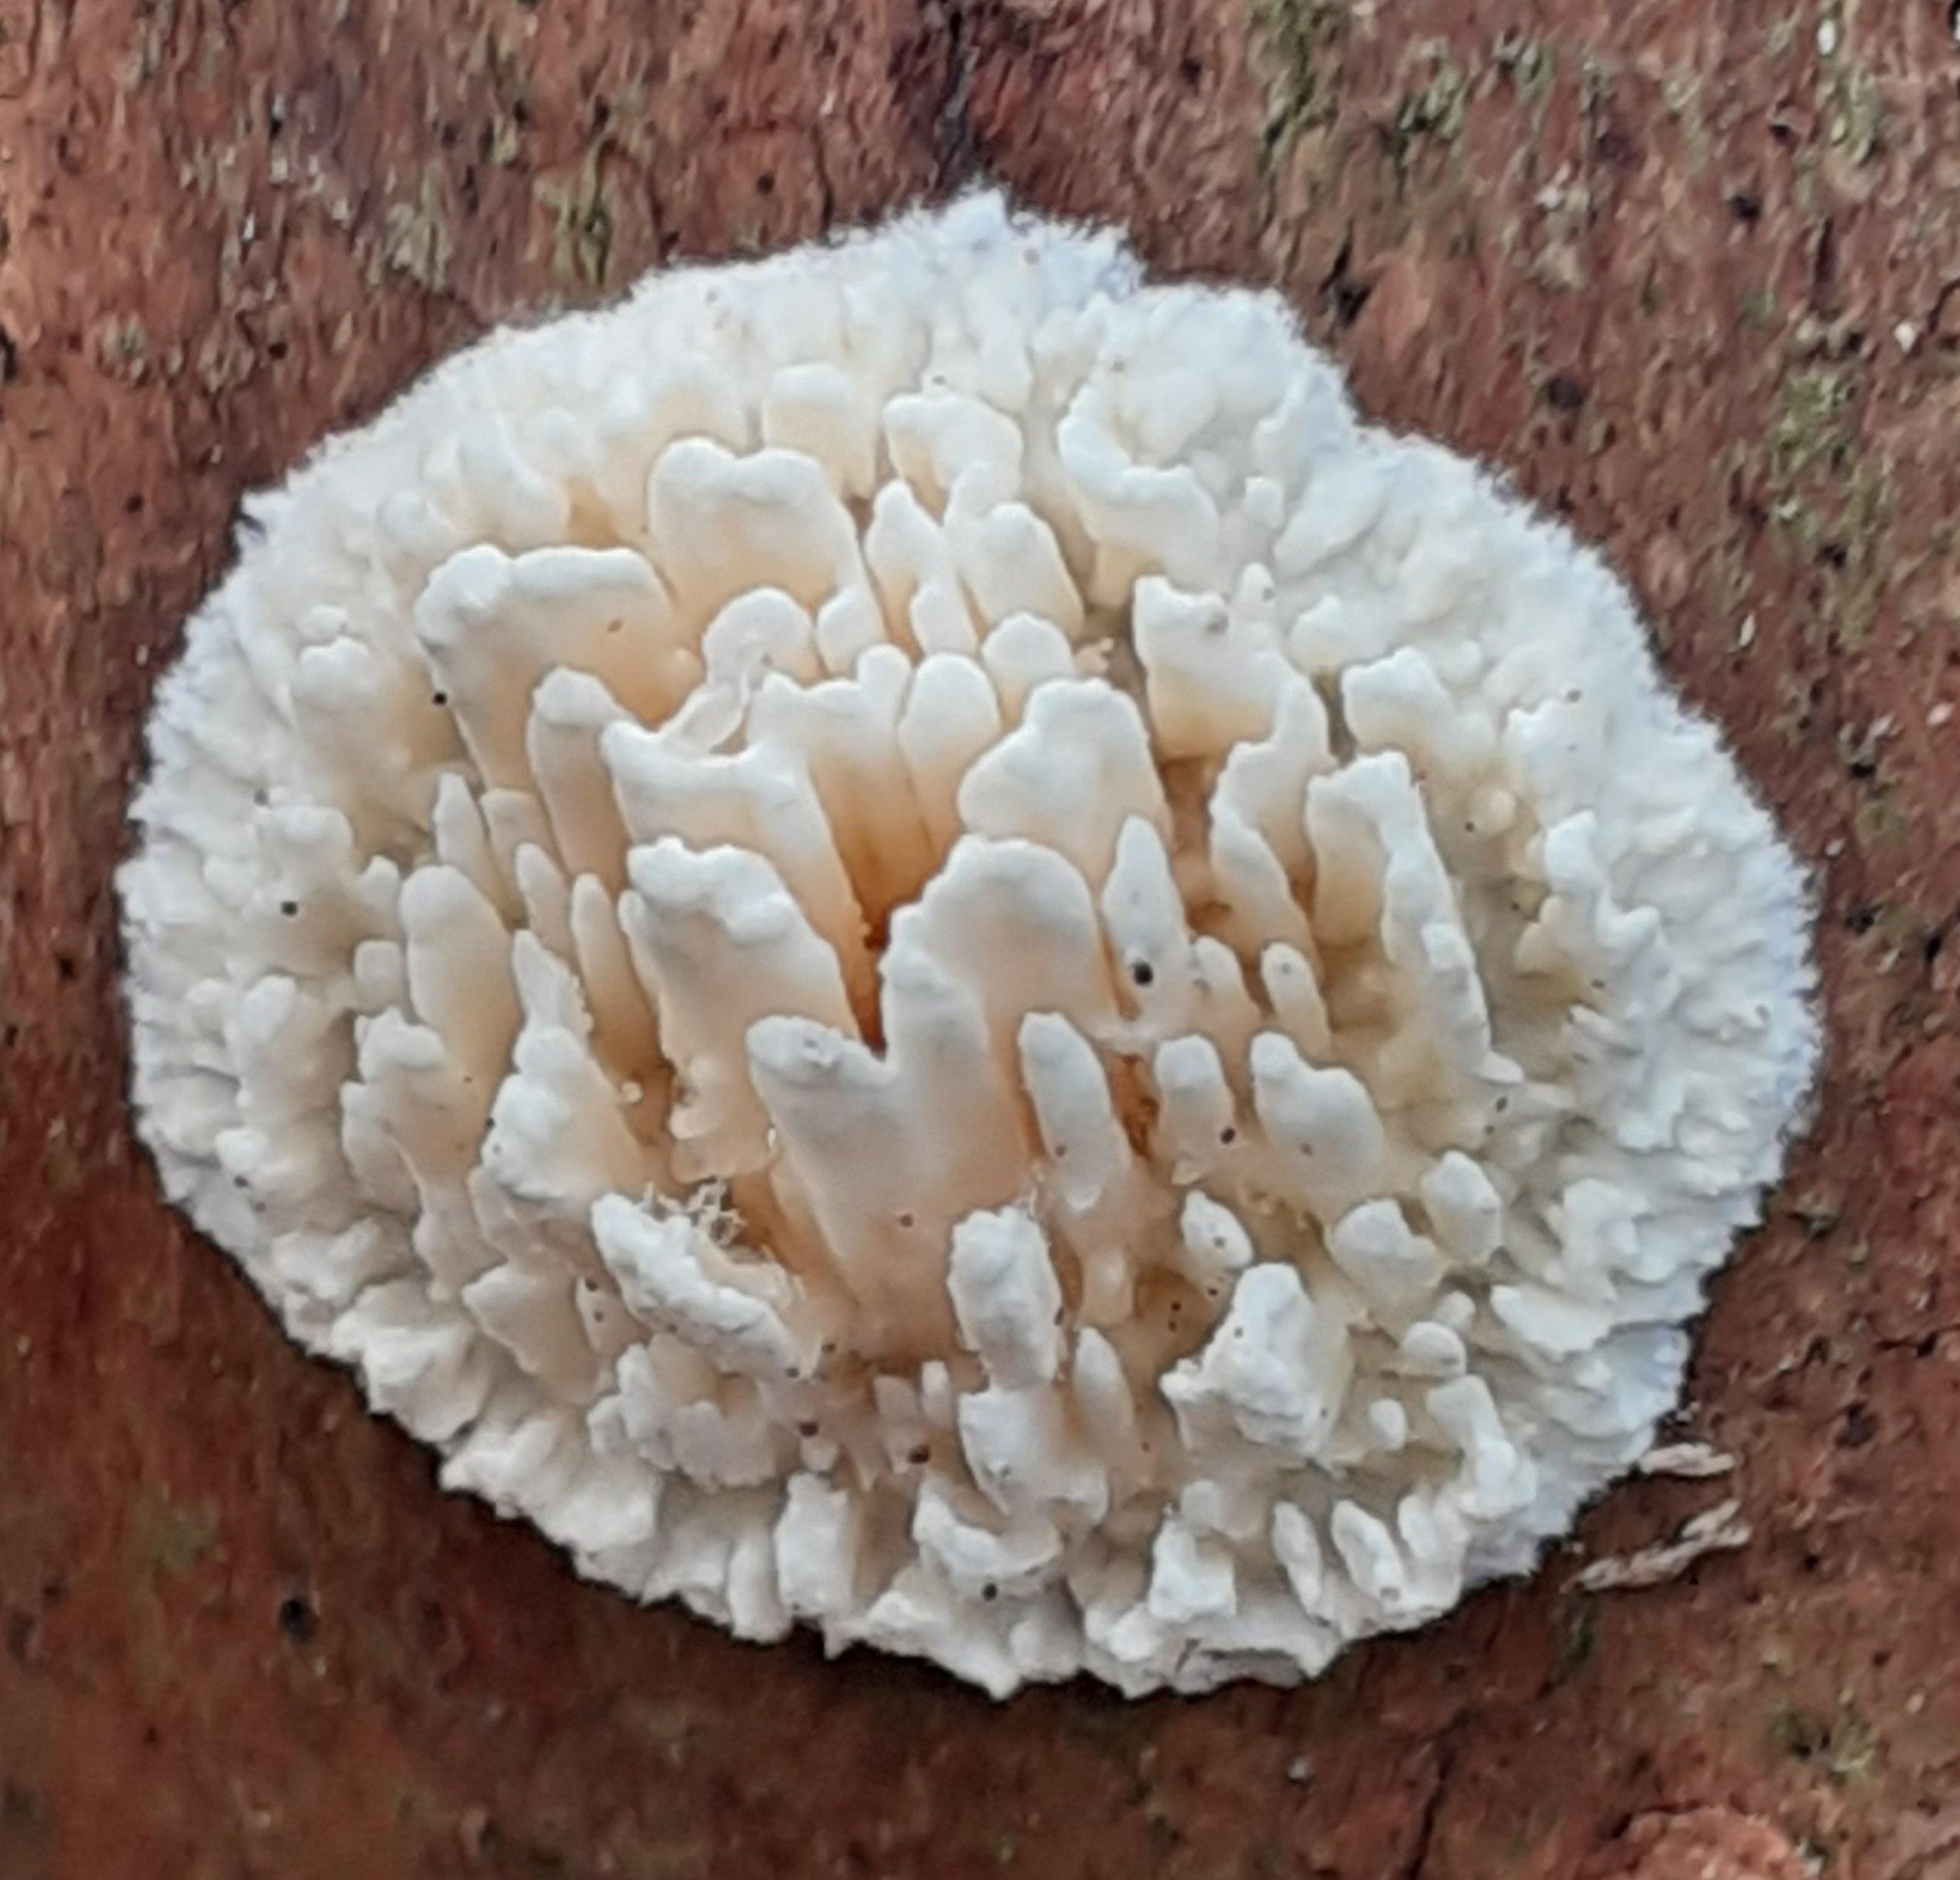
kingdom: Fungi
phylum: Basidiomycota
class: Agaricomycetes
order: Hymenochaetales
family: Schizoporaceae
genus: Xylodon
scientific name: Xylodon radula
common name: grovtandet kalkskind
